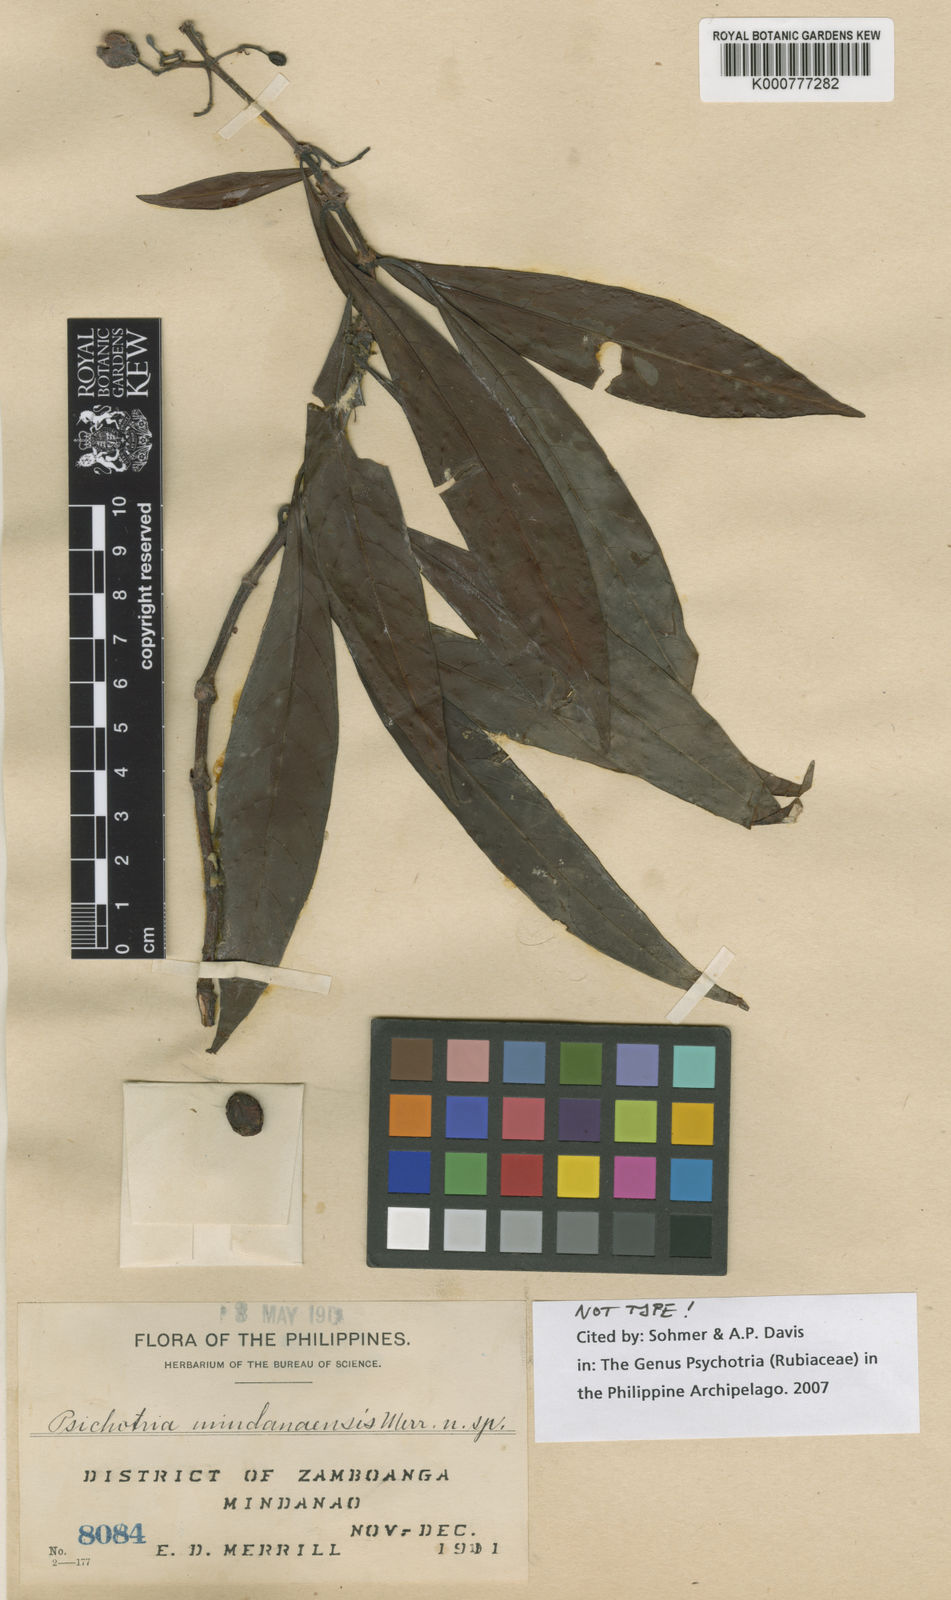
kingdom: Plantae
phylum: Tracheophyta
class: Magnoliopsida
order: Gentianales
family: Rubiaceae
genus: Psychotria
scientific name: Psychotria mindanaensis
